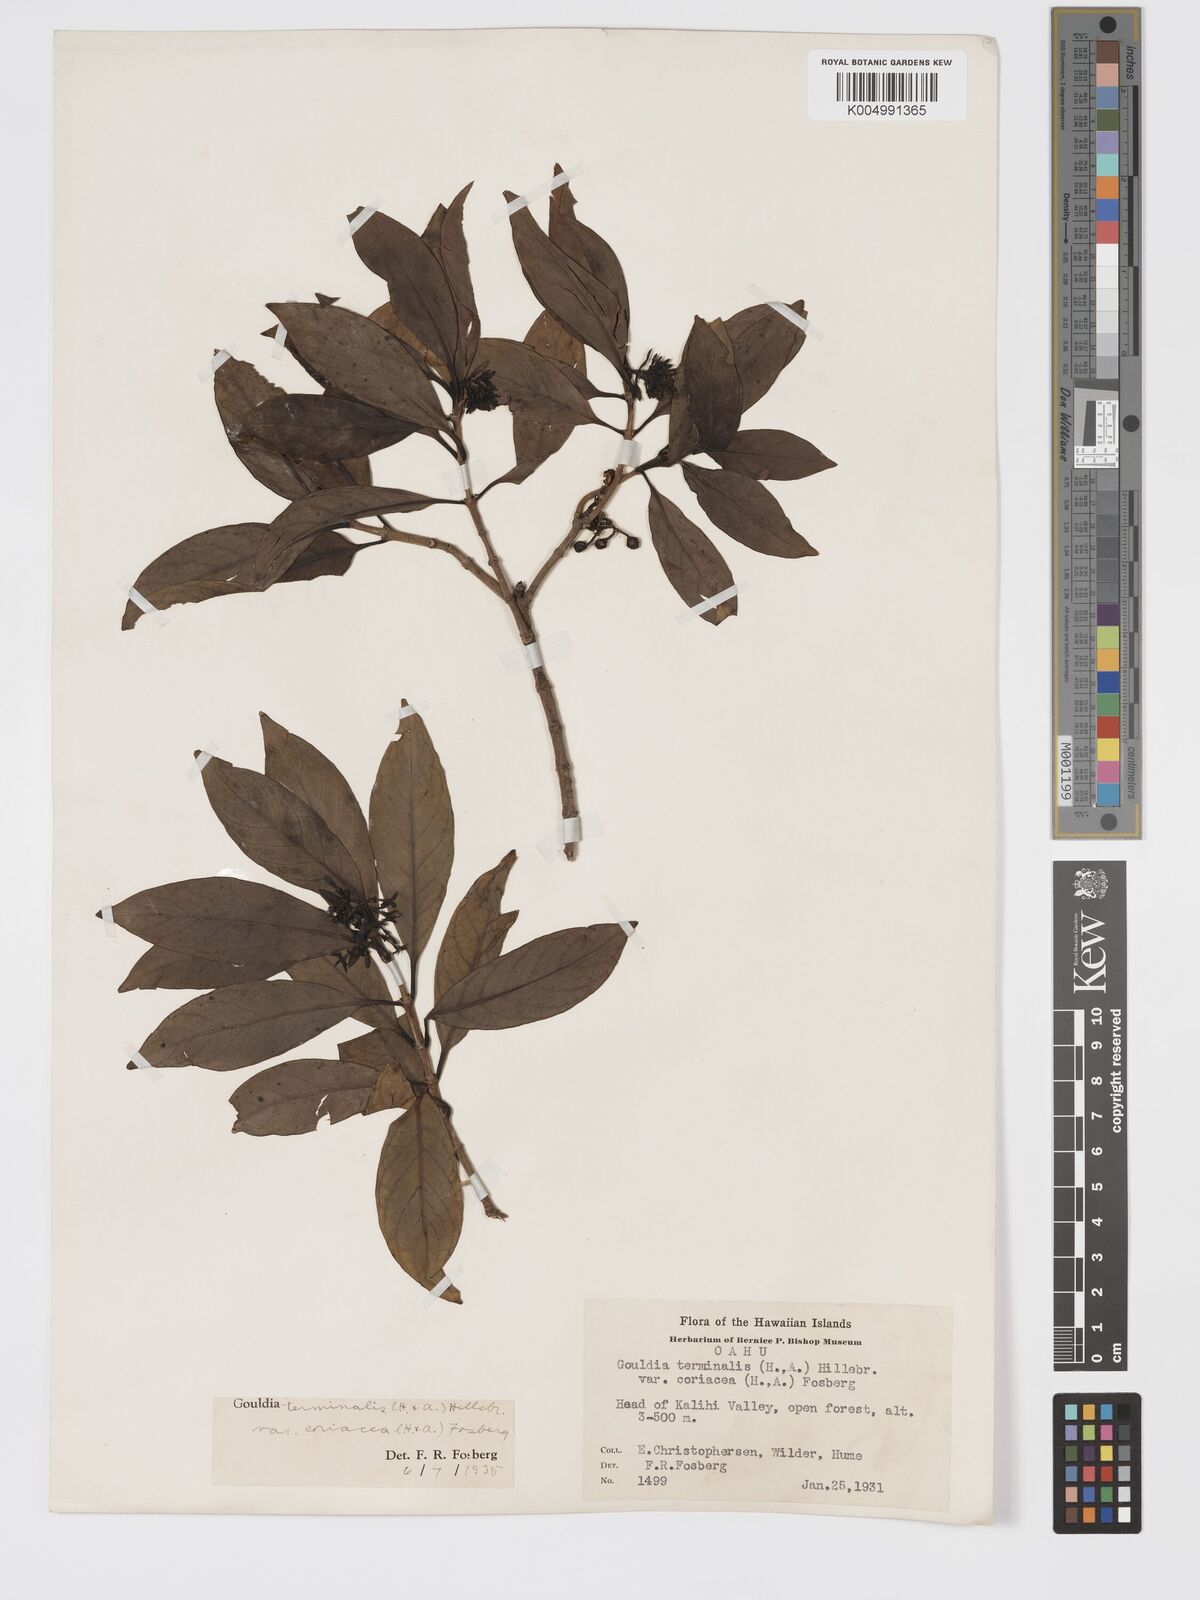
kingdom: Plantae
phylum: Tracheophyta
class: Magnoliopsida
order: Gentianales
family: Rubiaceae
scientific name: Rubiaceae
